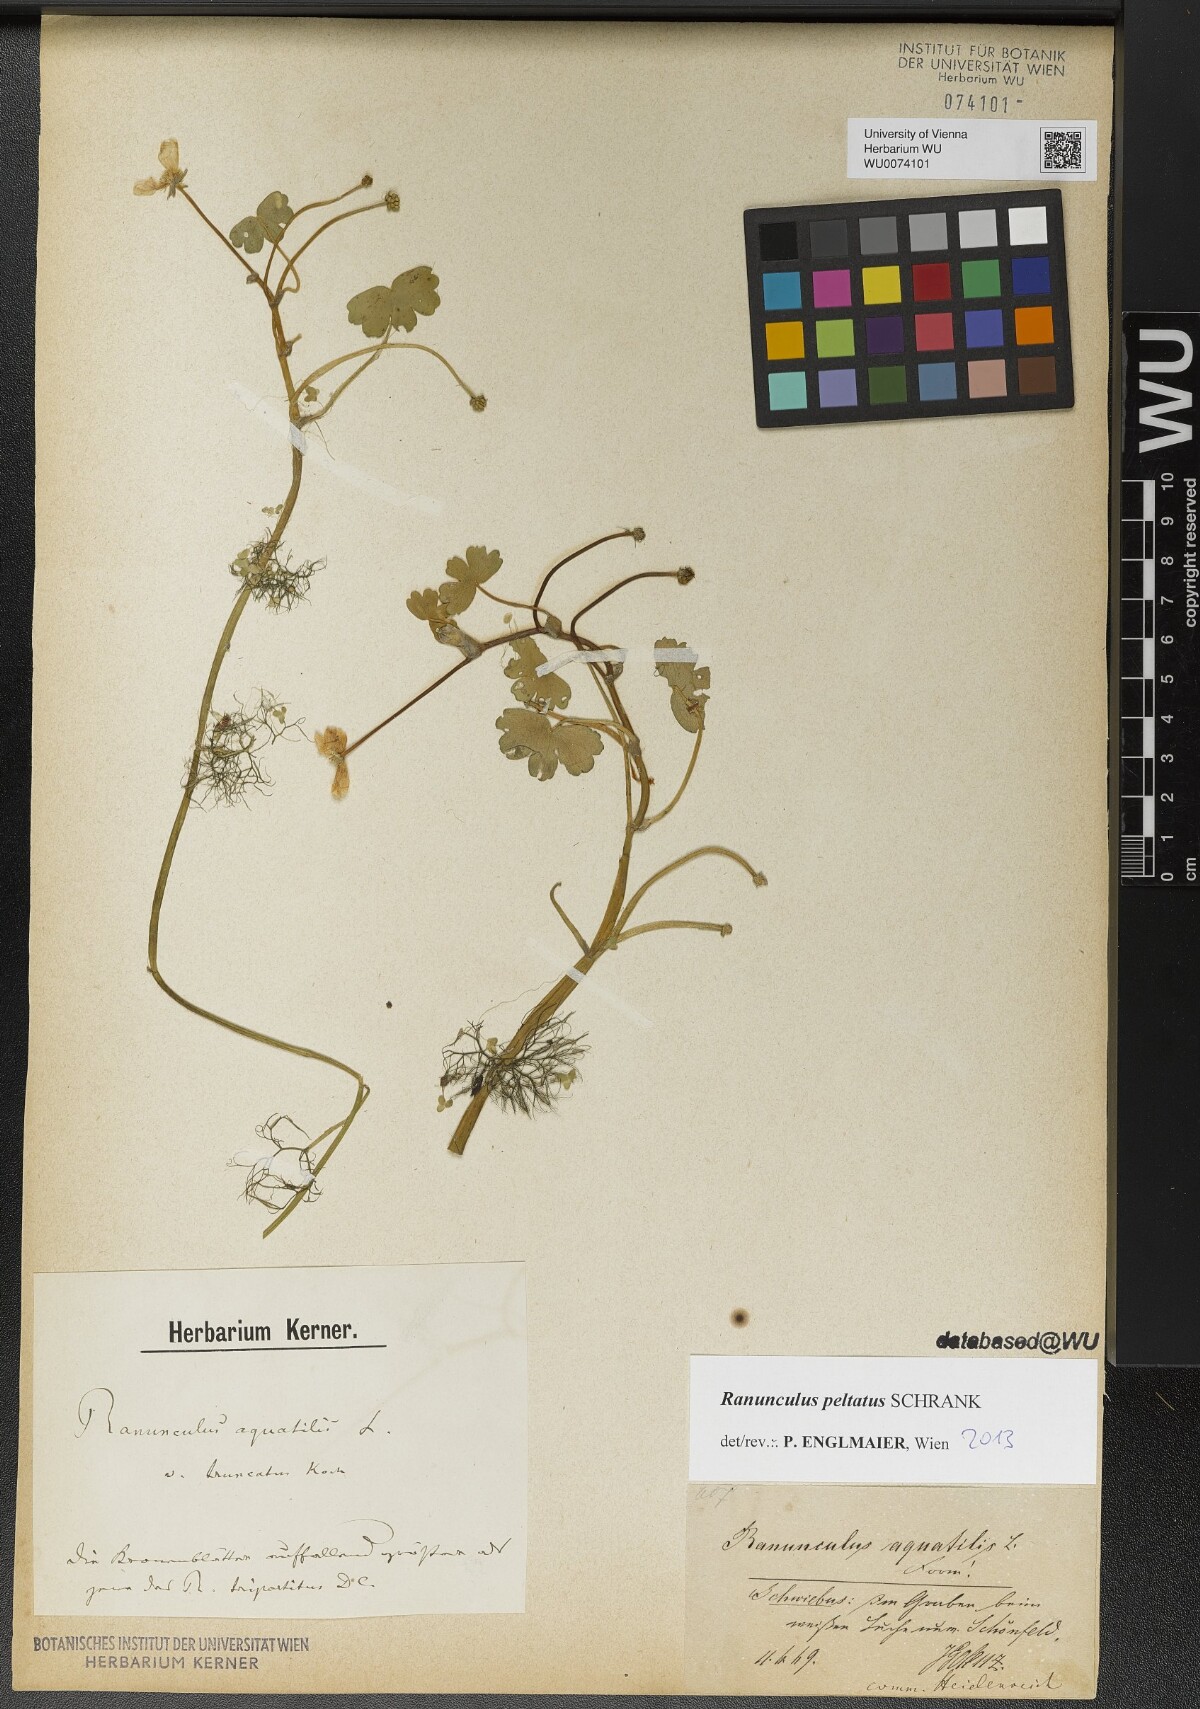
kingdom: Plantae
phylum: Tracheophyta
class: Magnoliopsida
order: Ranunculales
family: Ranunculaceae
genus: Ranunculus
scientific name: Ranunculus peltatus
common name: Pond water-crowfoot
